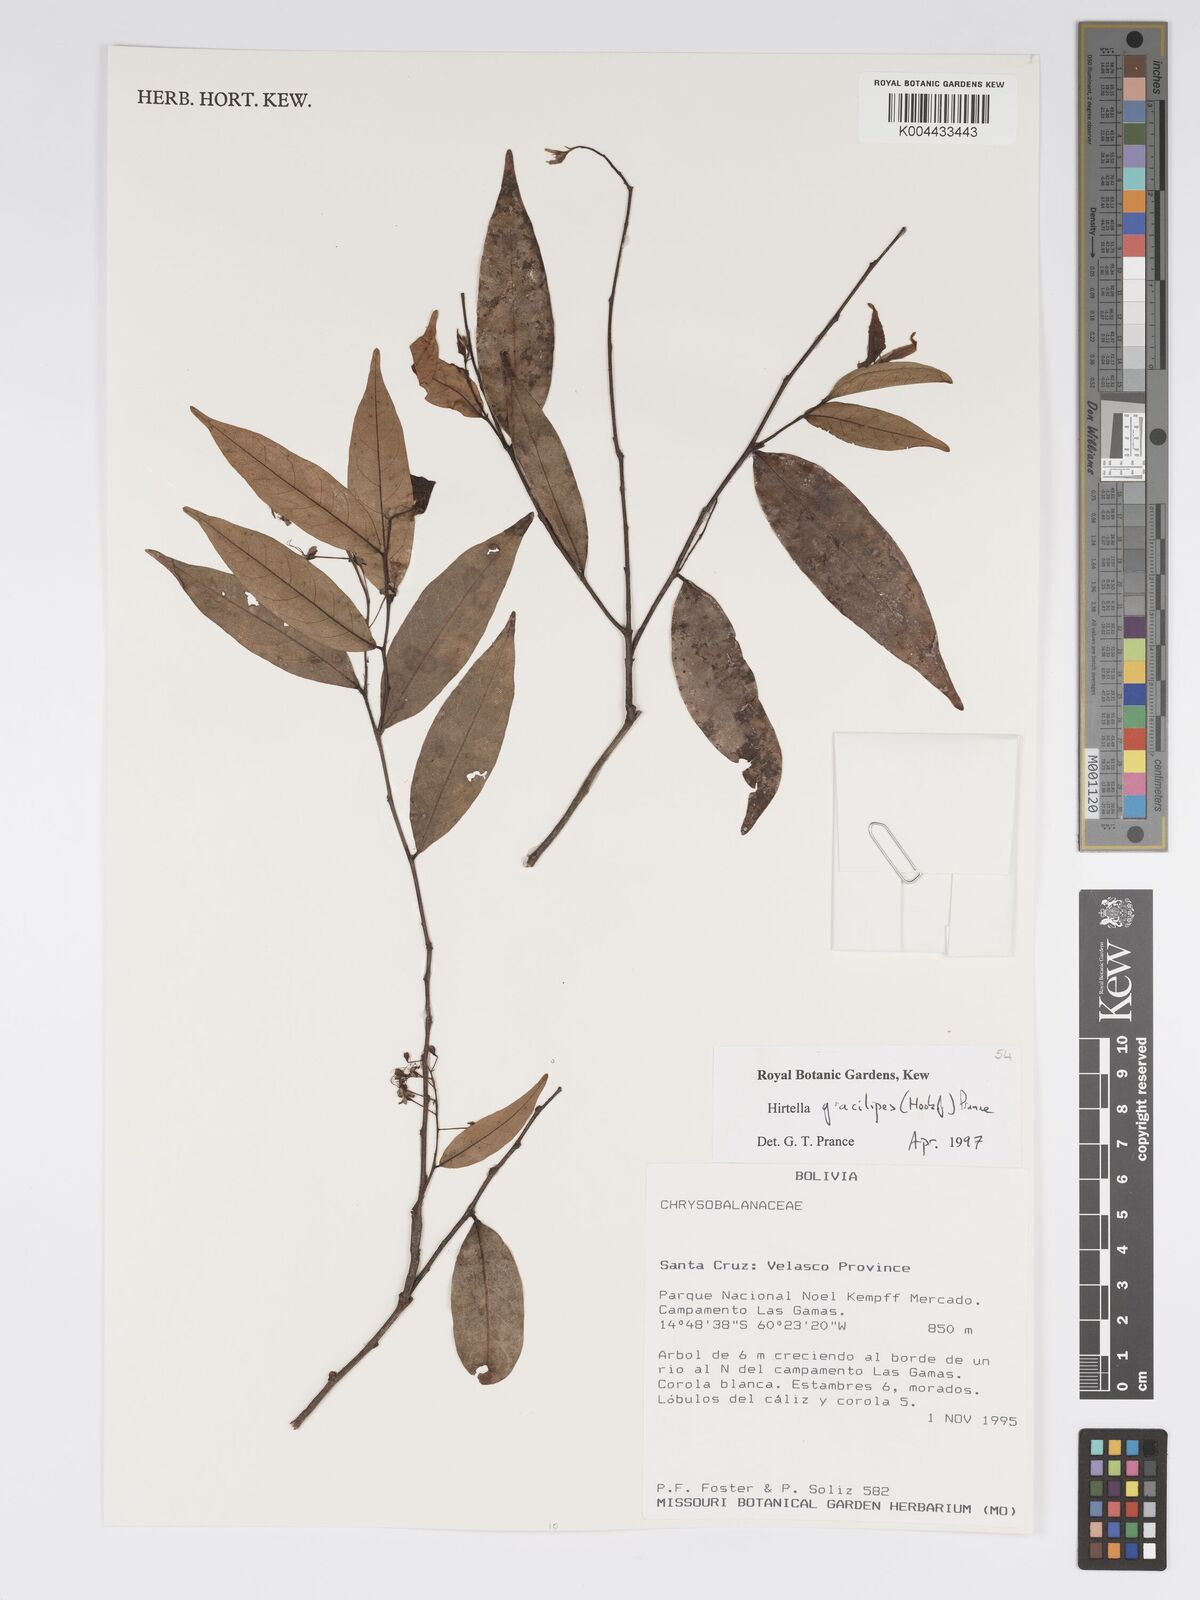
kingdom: Plantae
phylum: Tracheophyta
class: Magnoliopsida
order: Malpighiales
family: Chrysobalanaceae
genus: Hirtella
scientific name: Hirtella gracilipes
